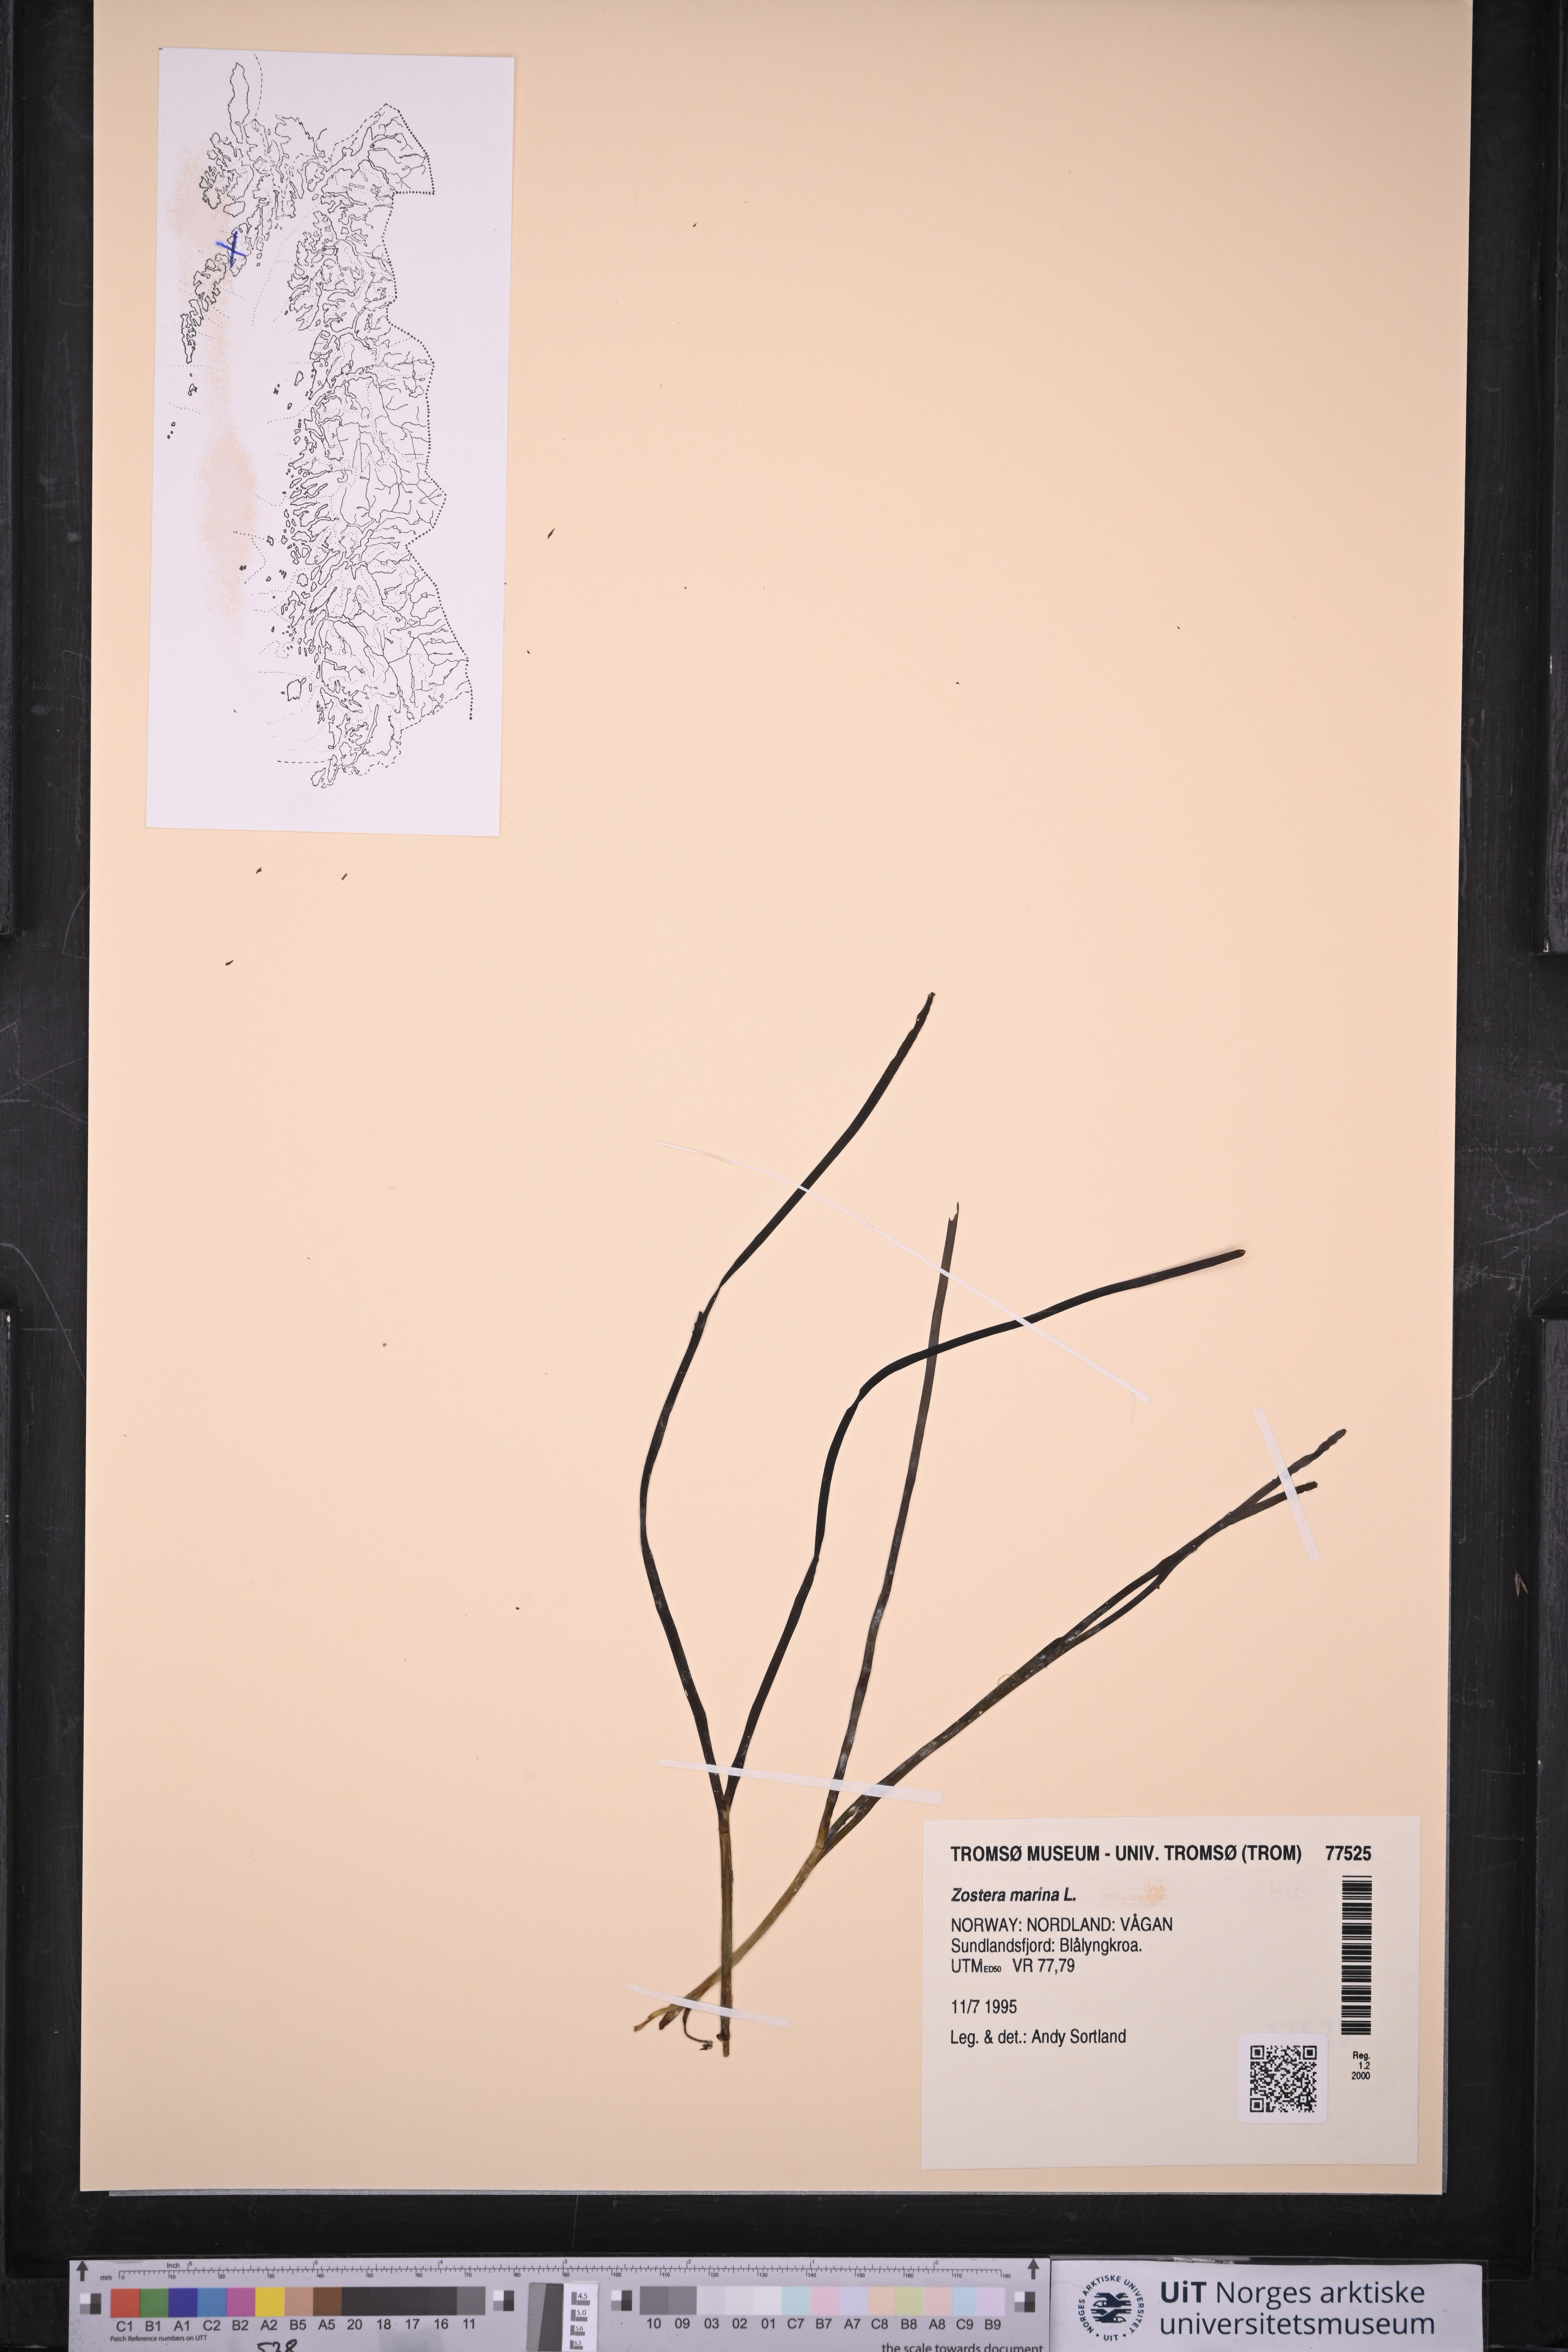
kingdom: Plantae
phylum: Tracheophyta
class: Liliopsida
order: Alismatales
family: Zosteraceae
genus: Zostera
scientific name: Zostera marina
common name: Eelgrass
